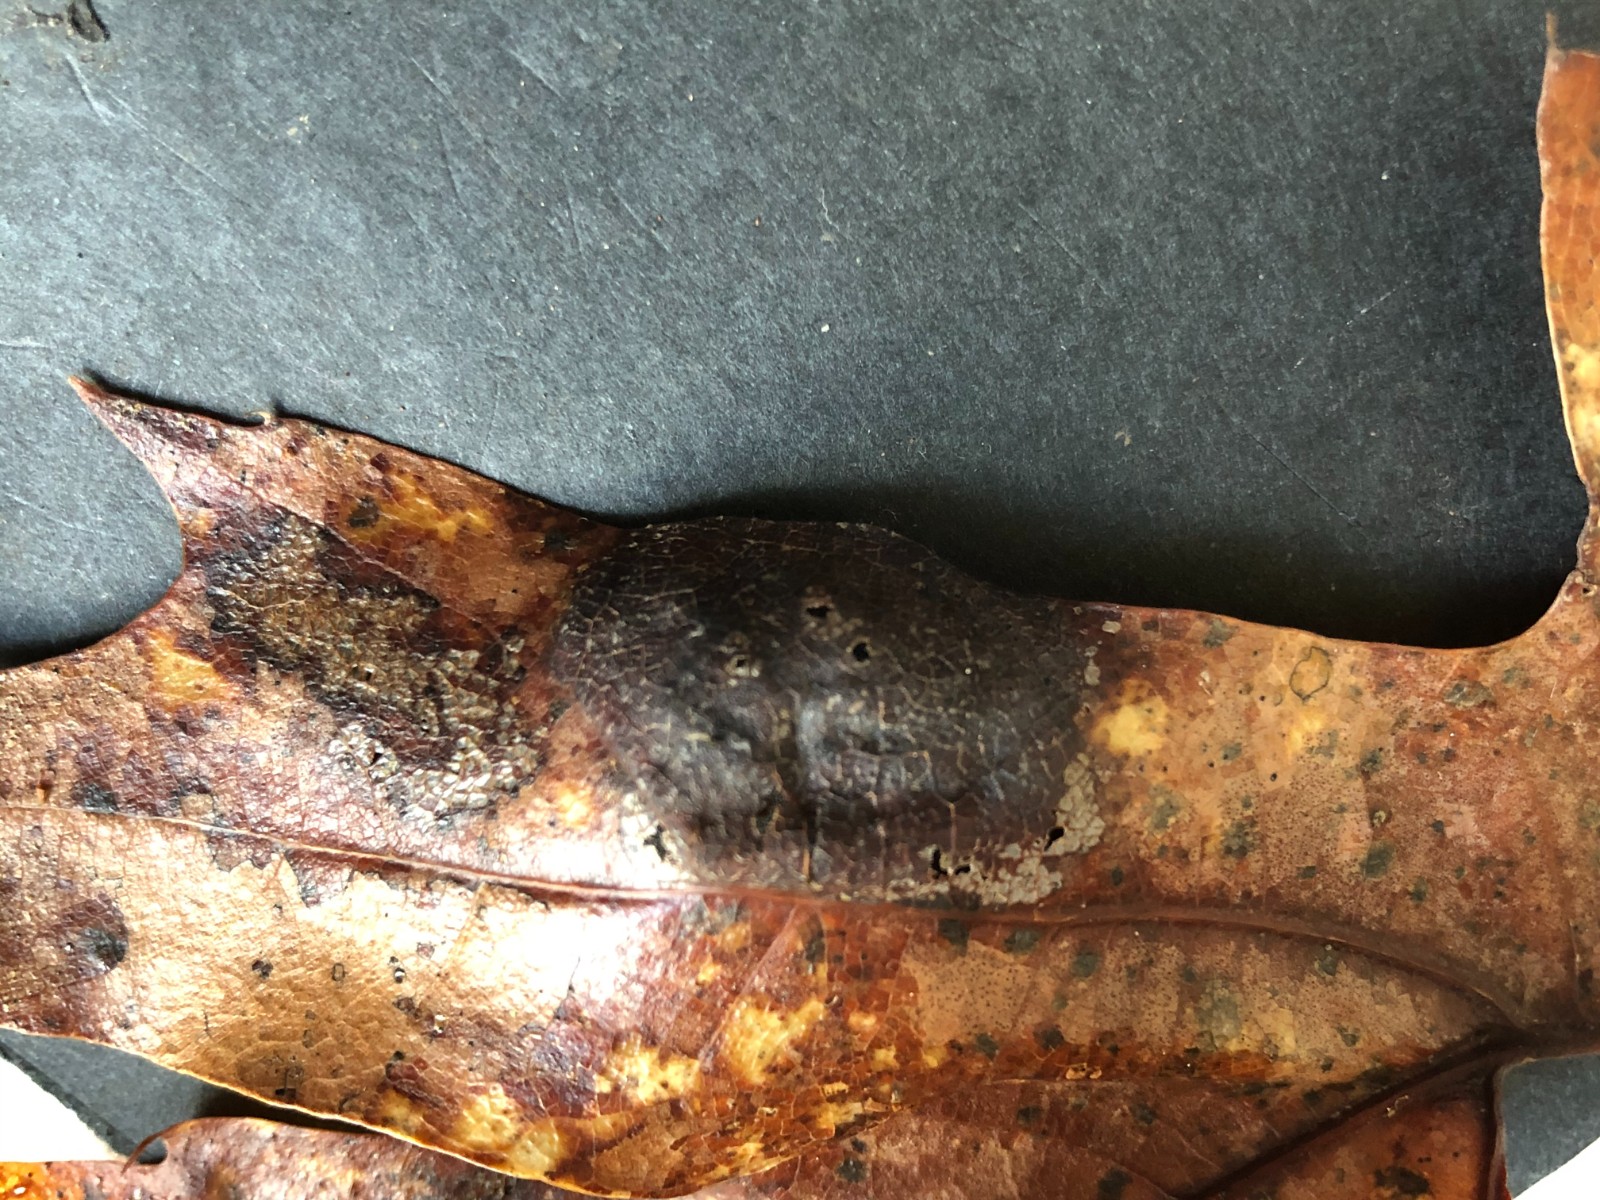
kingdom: Fungi
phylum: Ascomycota
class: Taphrinomycetes
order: Taphrinales
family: Taphrinaceae
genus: Taphrina
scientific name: Taphrina caerulescens
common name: Oak leaf blister
